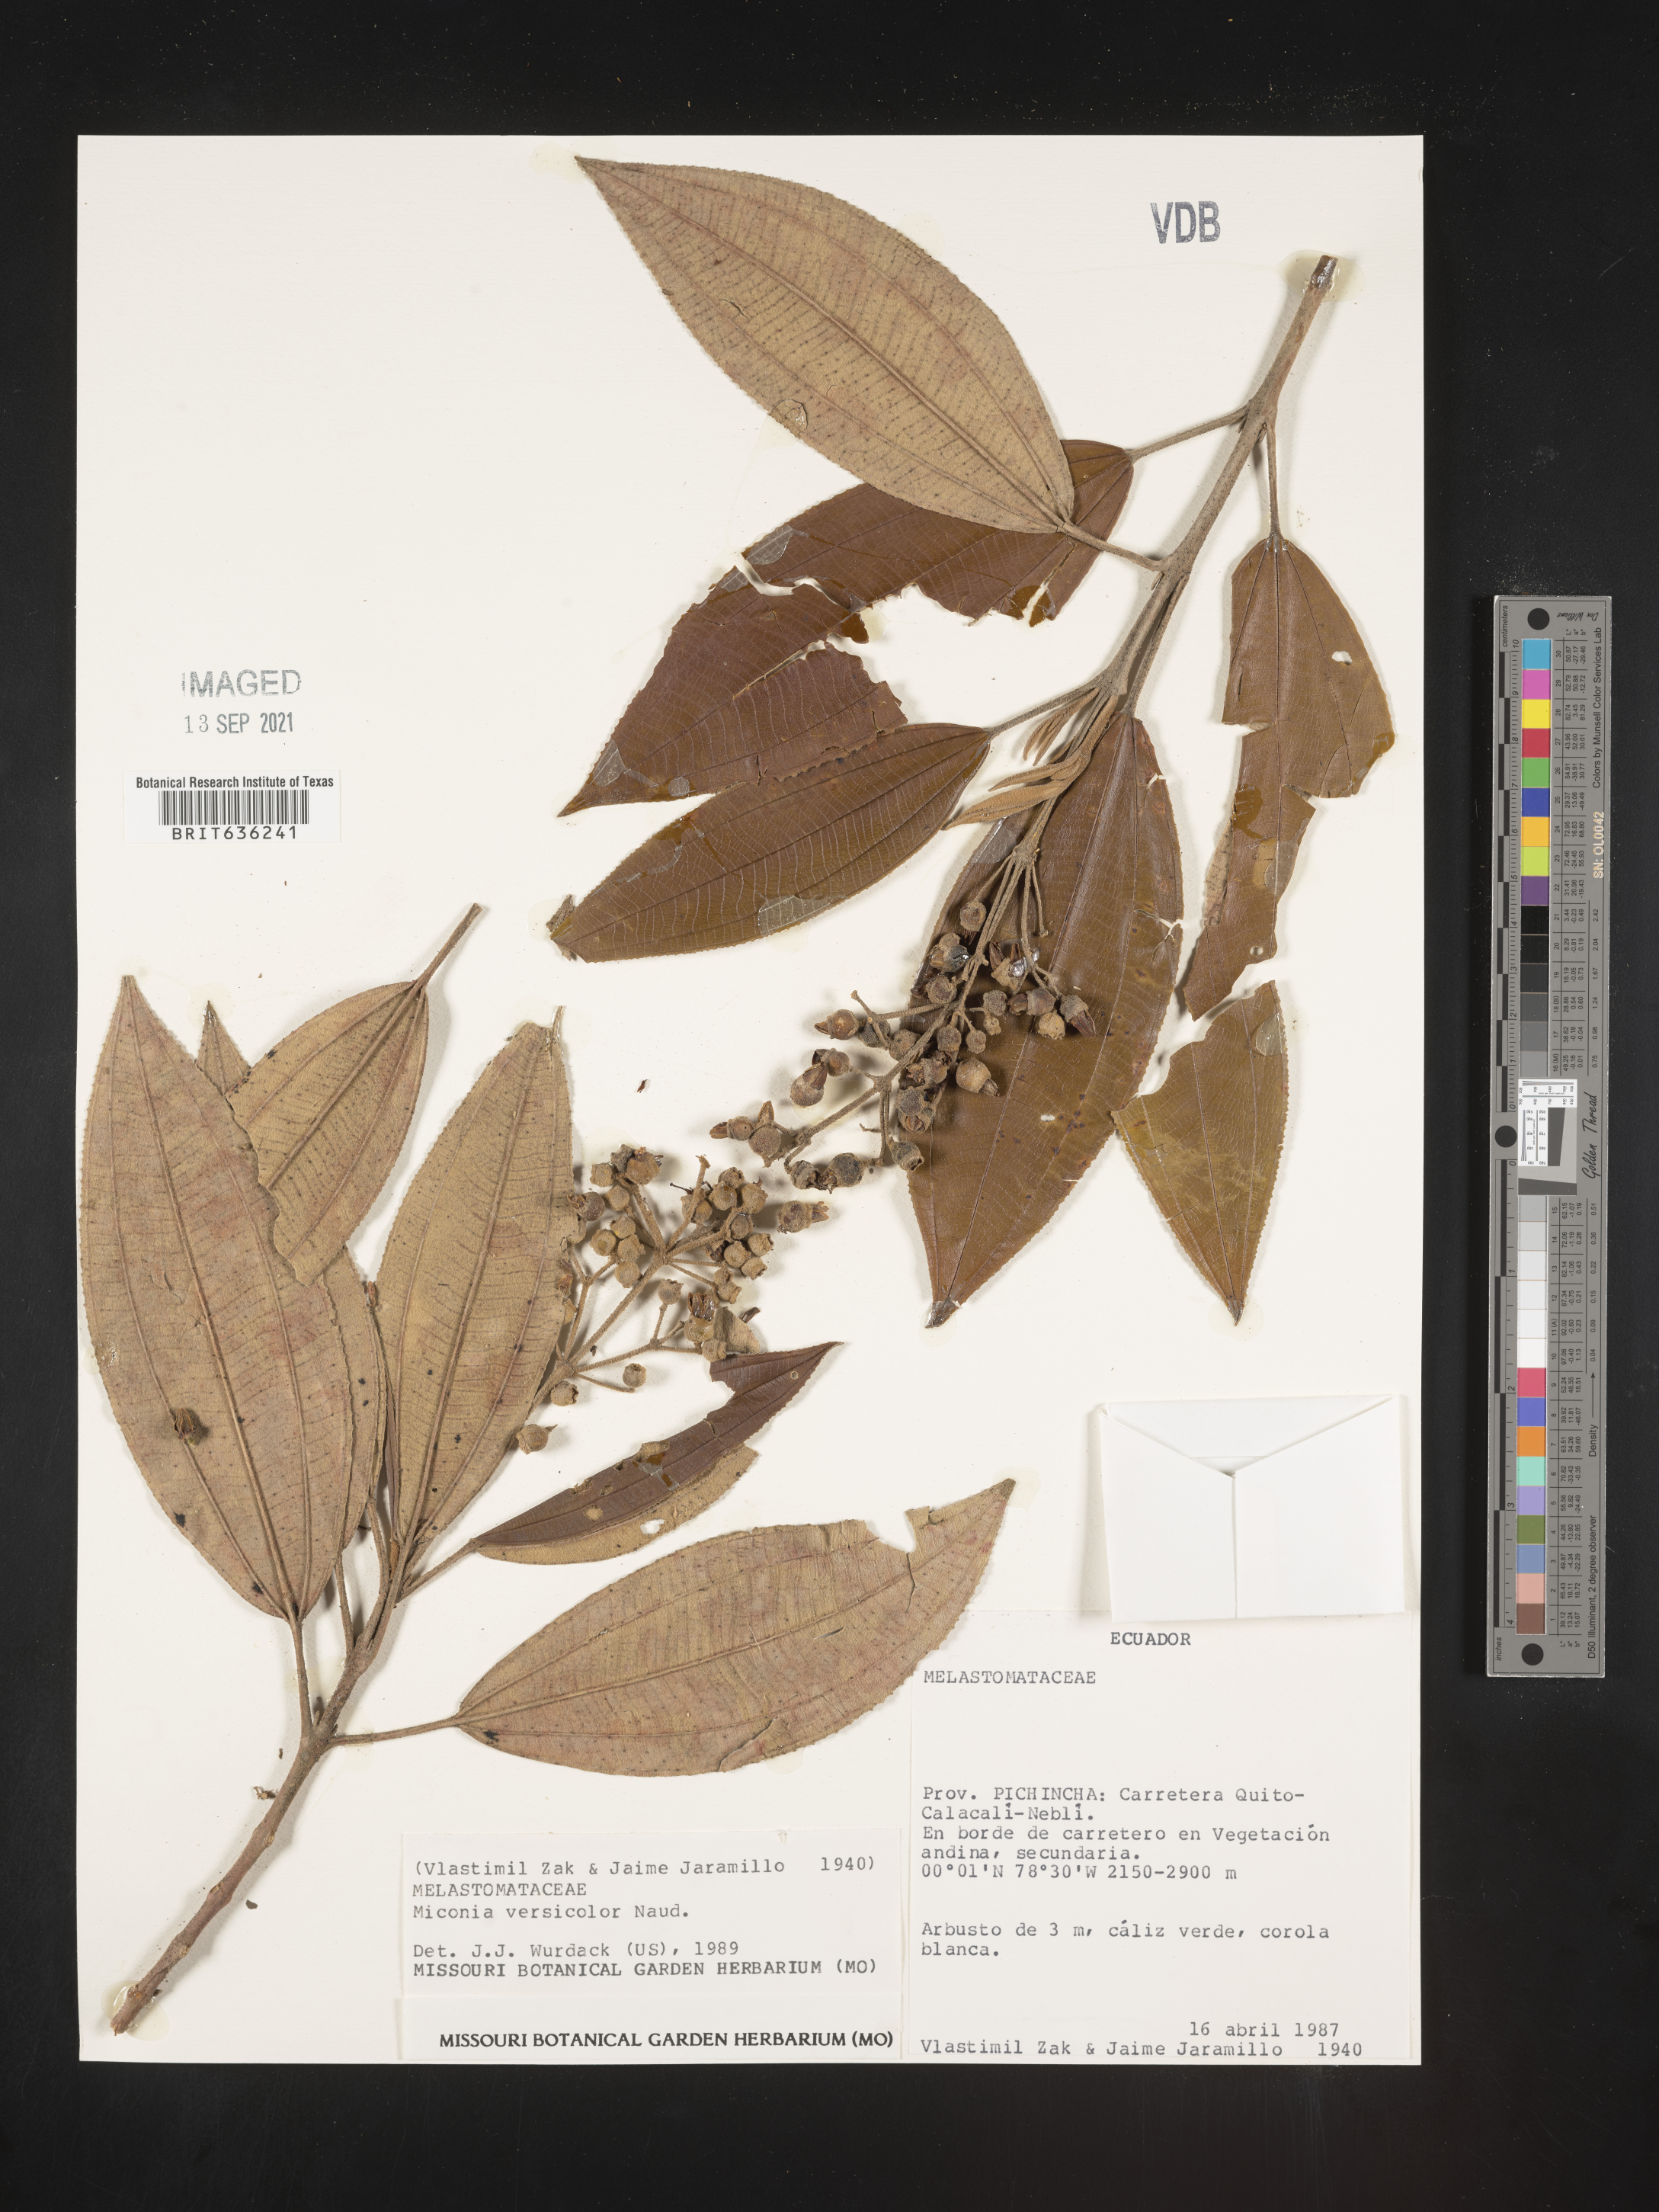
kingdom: Plantae
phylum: Tracheophyta
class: Magnoliopsida
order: Myrtales
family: Melastomataceae
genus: Miconia
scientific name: Miconia
